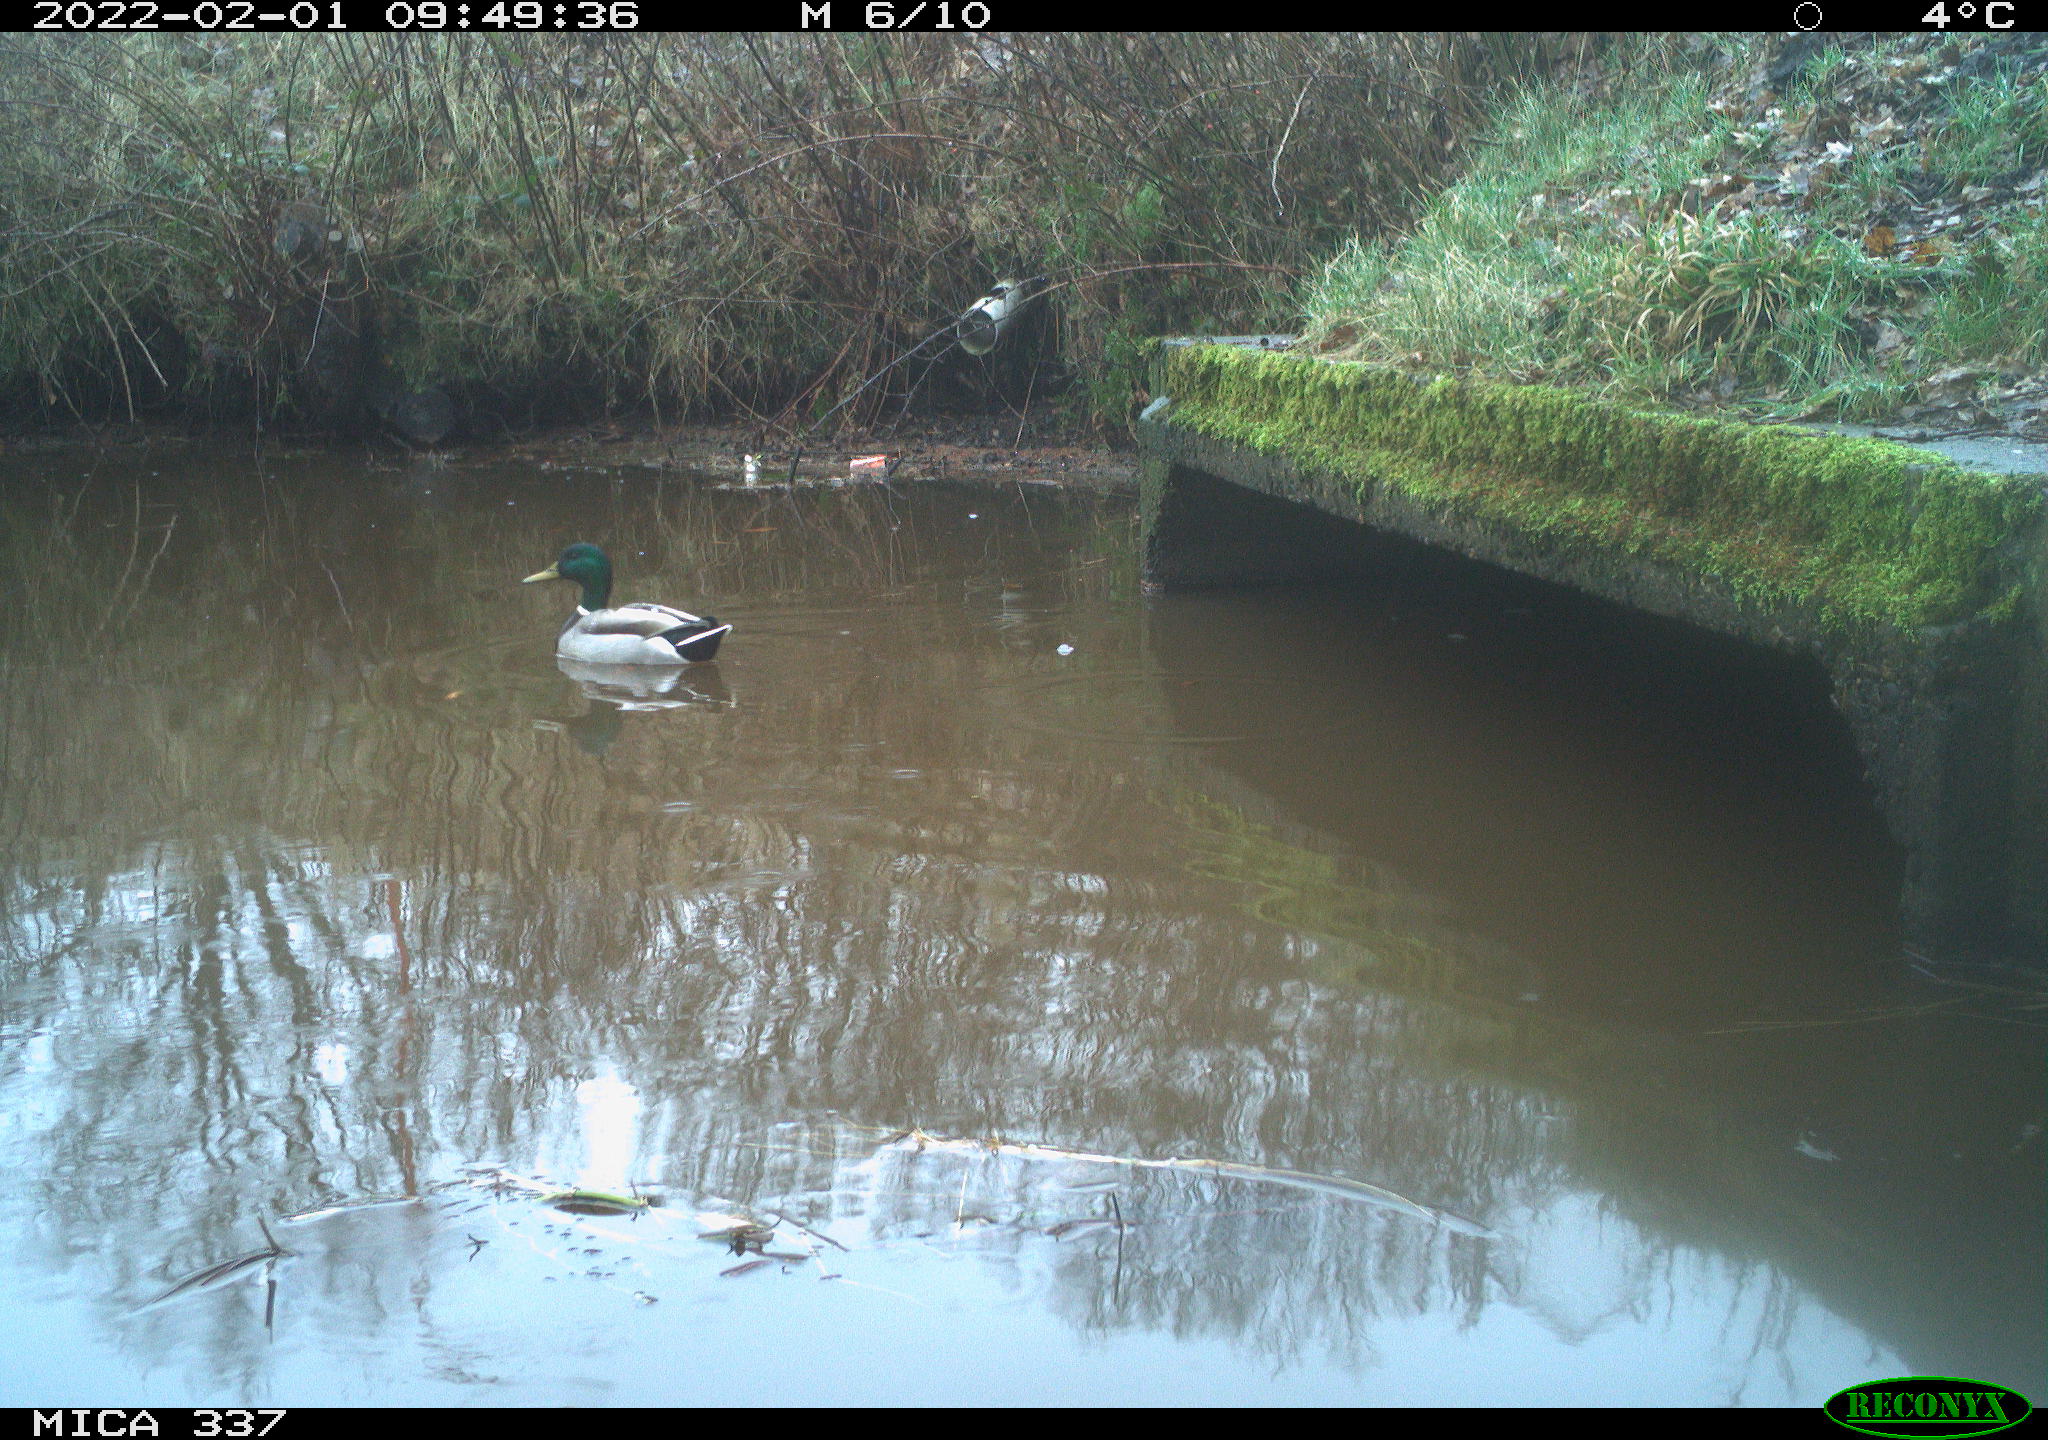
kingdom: Animalia
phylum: Chordata
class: Aves
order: Anseriformes
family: Anatidae
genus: Anas
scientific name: Anas platyrhynchos
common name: Mallard
